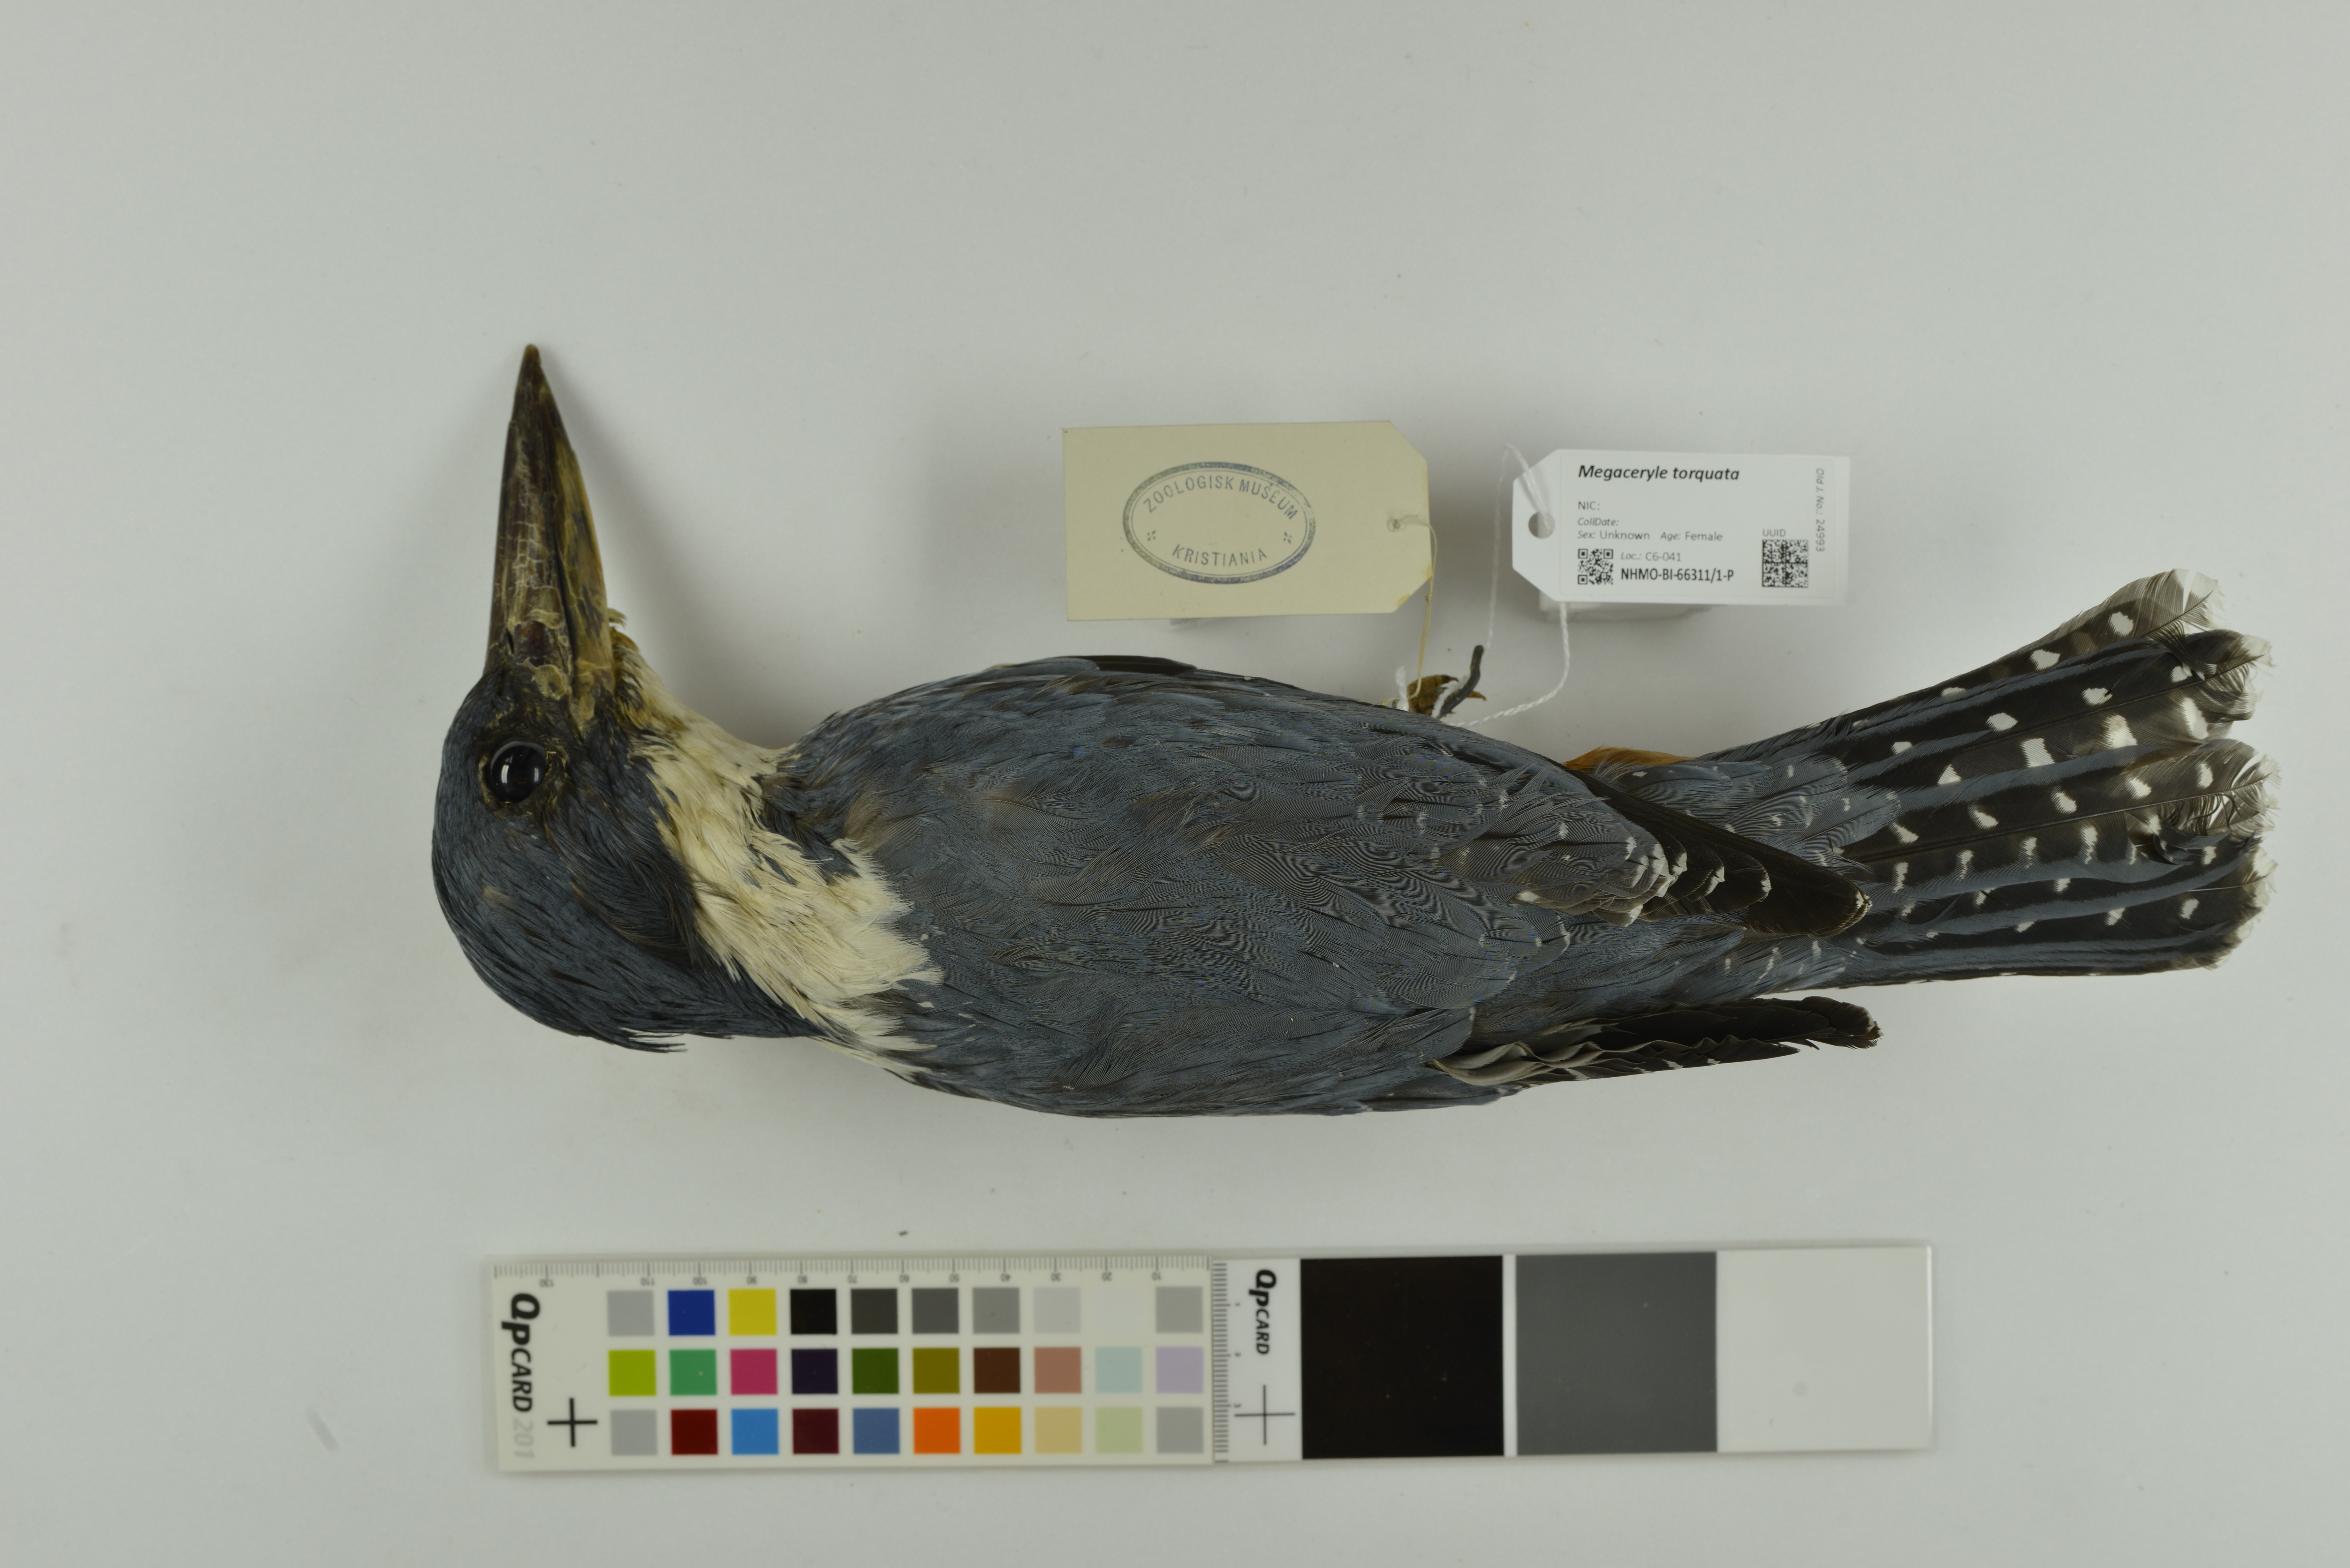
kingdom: Animalia
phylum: Chordata
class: Aves
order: Coraciiformes
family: Alcedinidae
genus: Megaceryle
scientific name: Megaceryle torquata
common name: Ringed kingfisher
